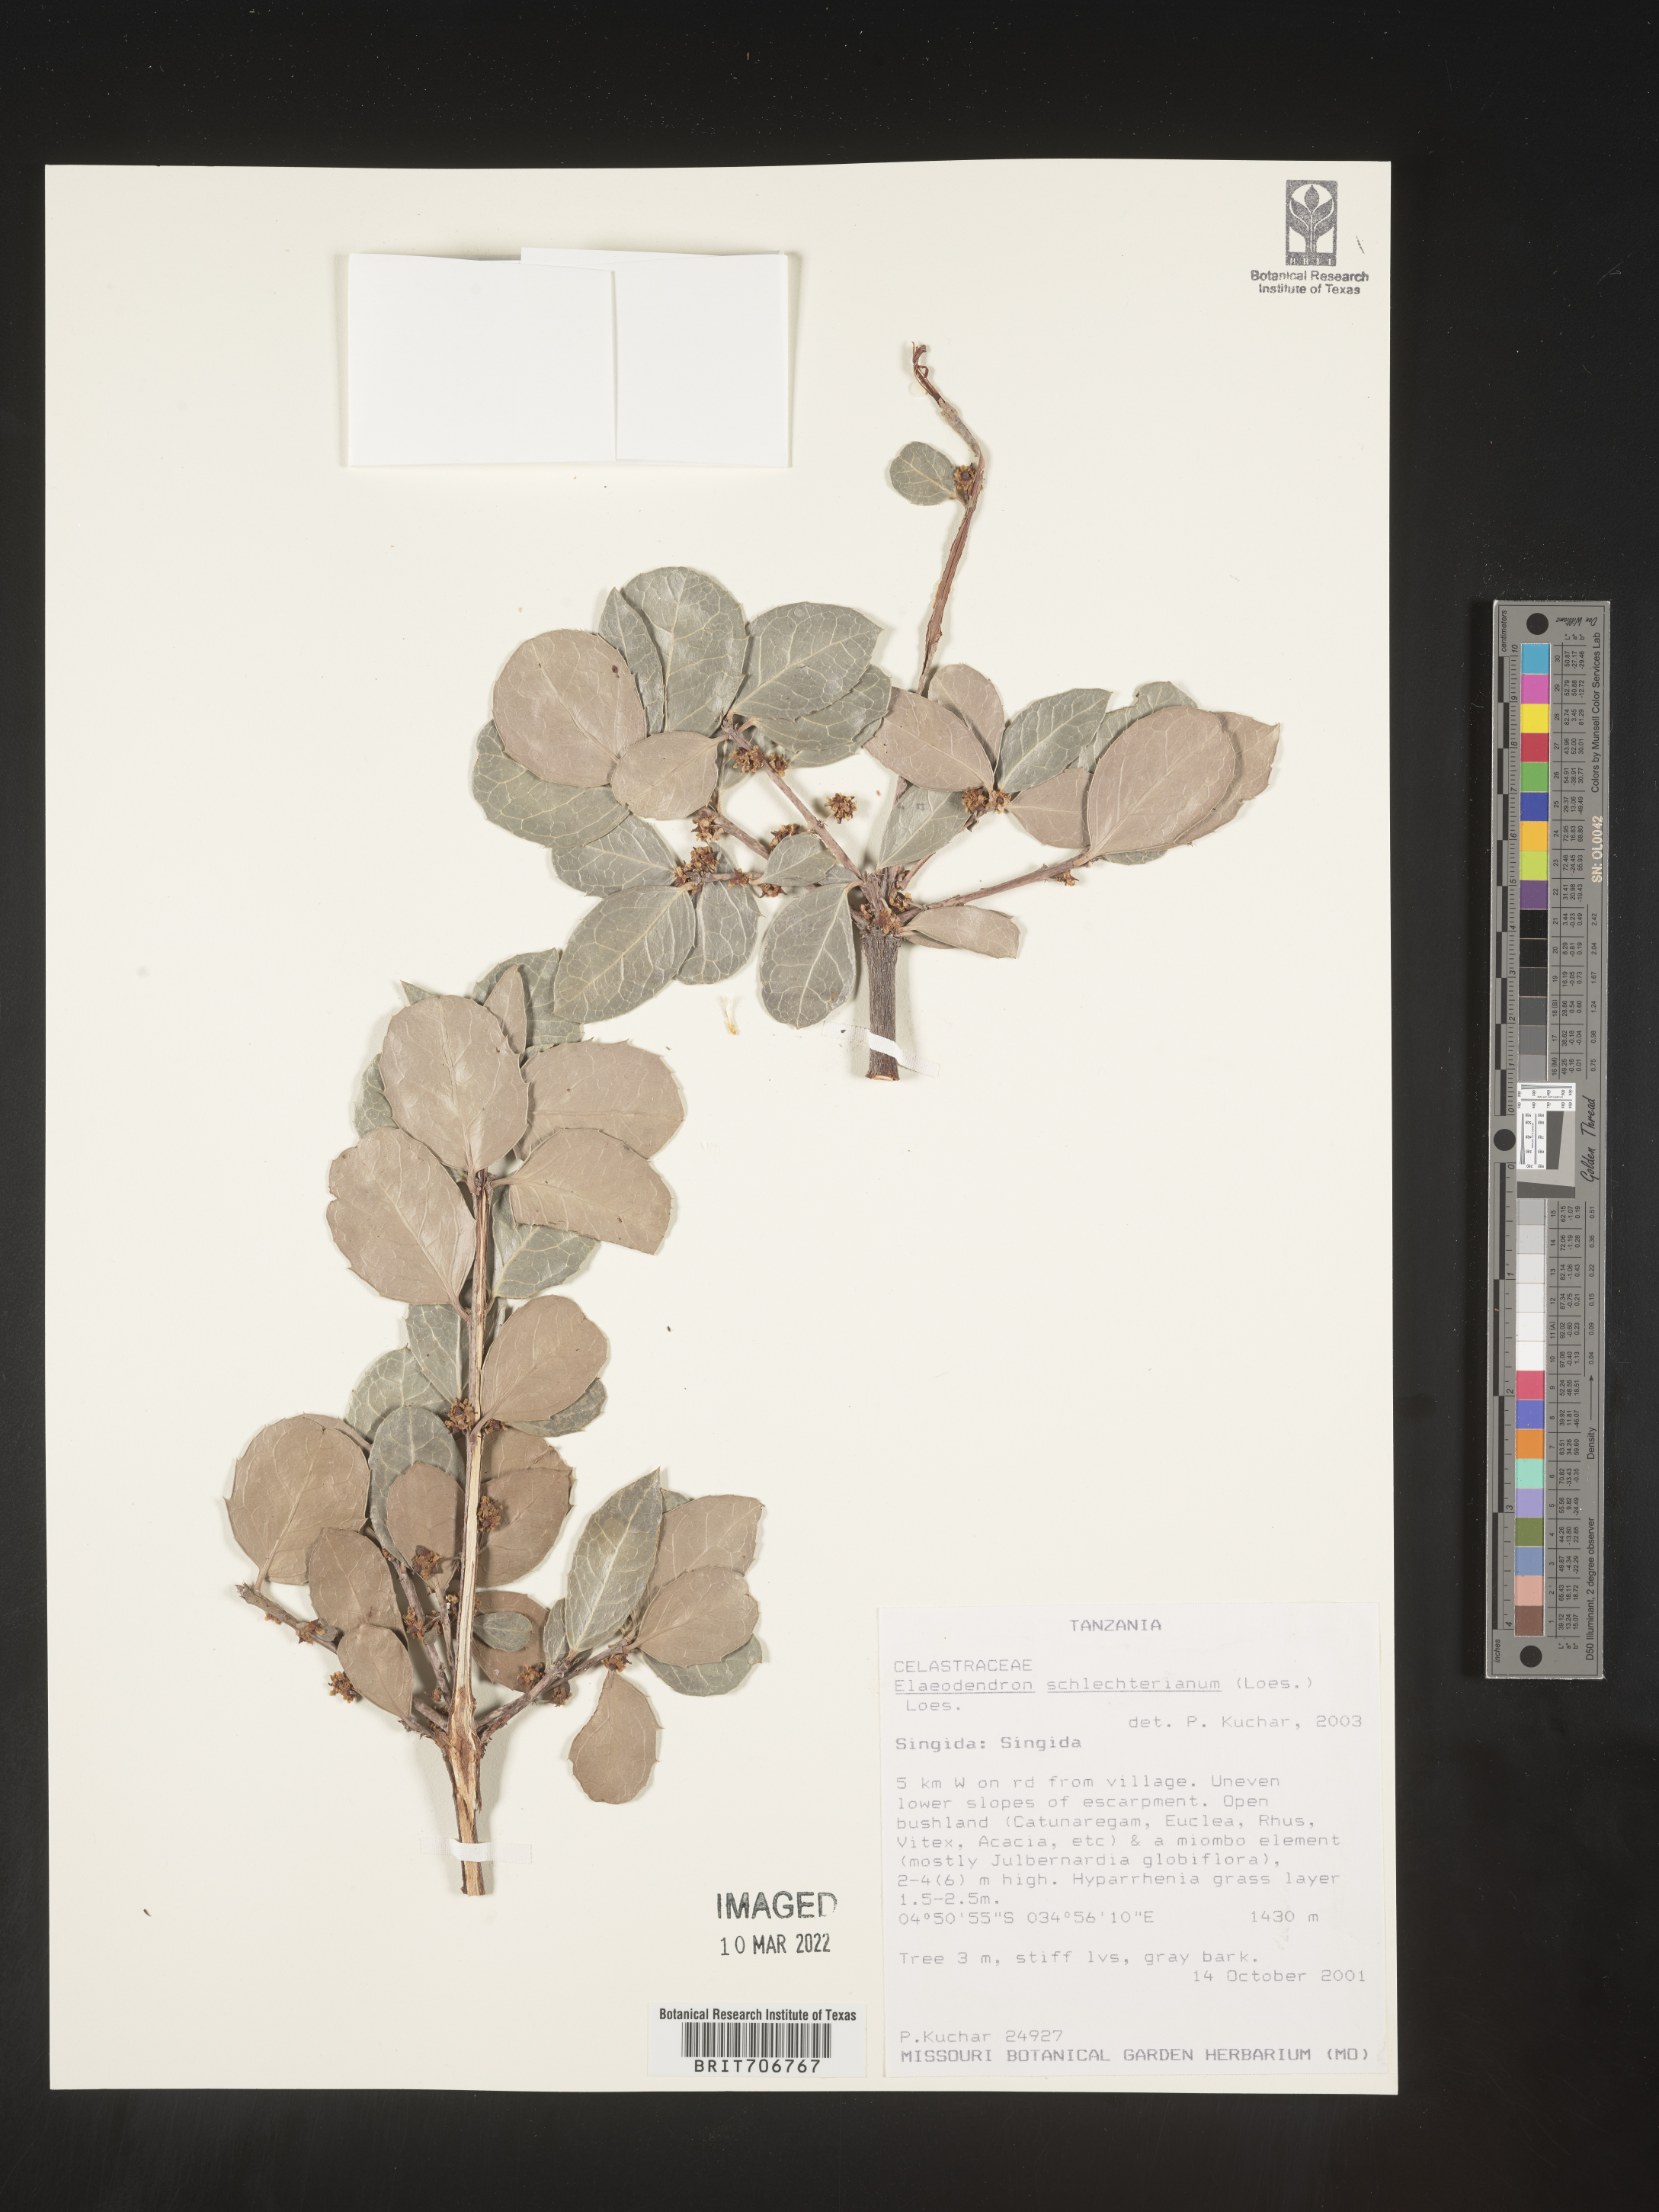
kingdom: Plantae
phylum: Tracheophyta
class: Magnoliopsida
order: Celastrales
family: Celastraceae
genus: Elaeodendron
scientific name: Elaeodendron
